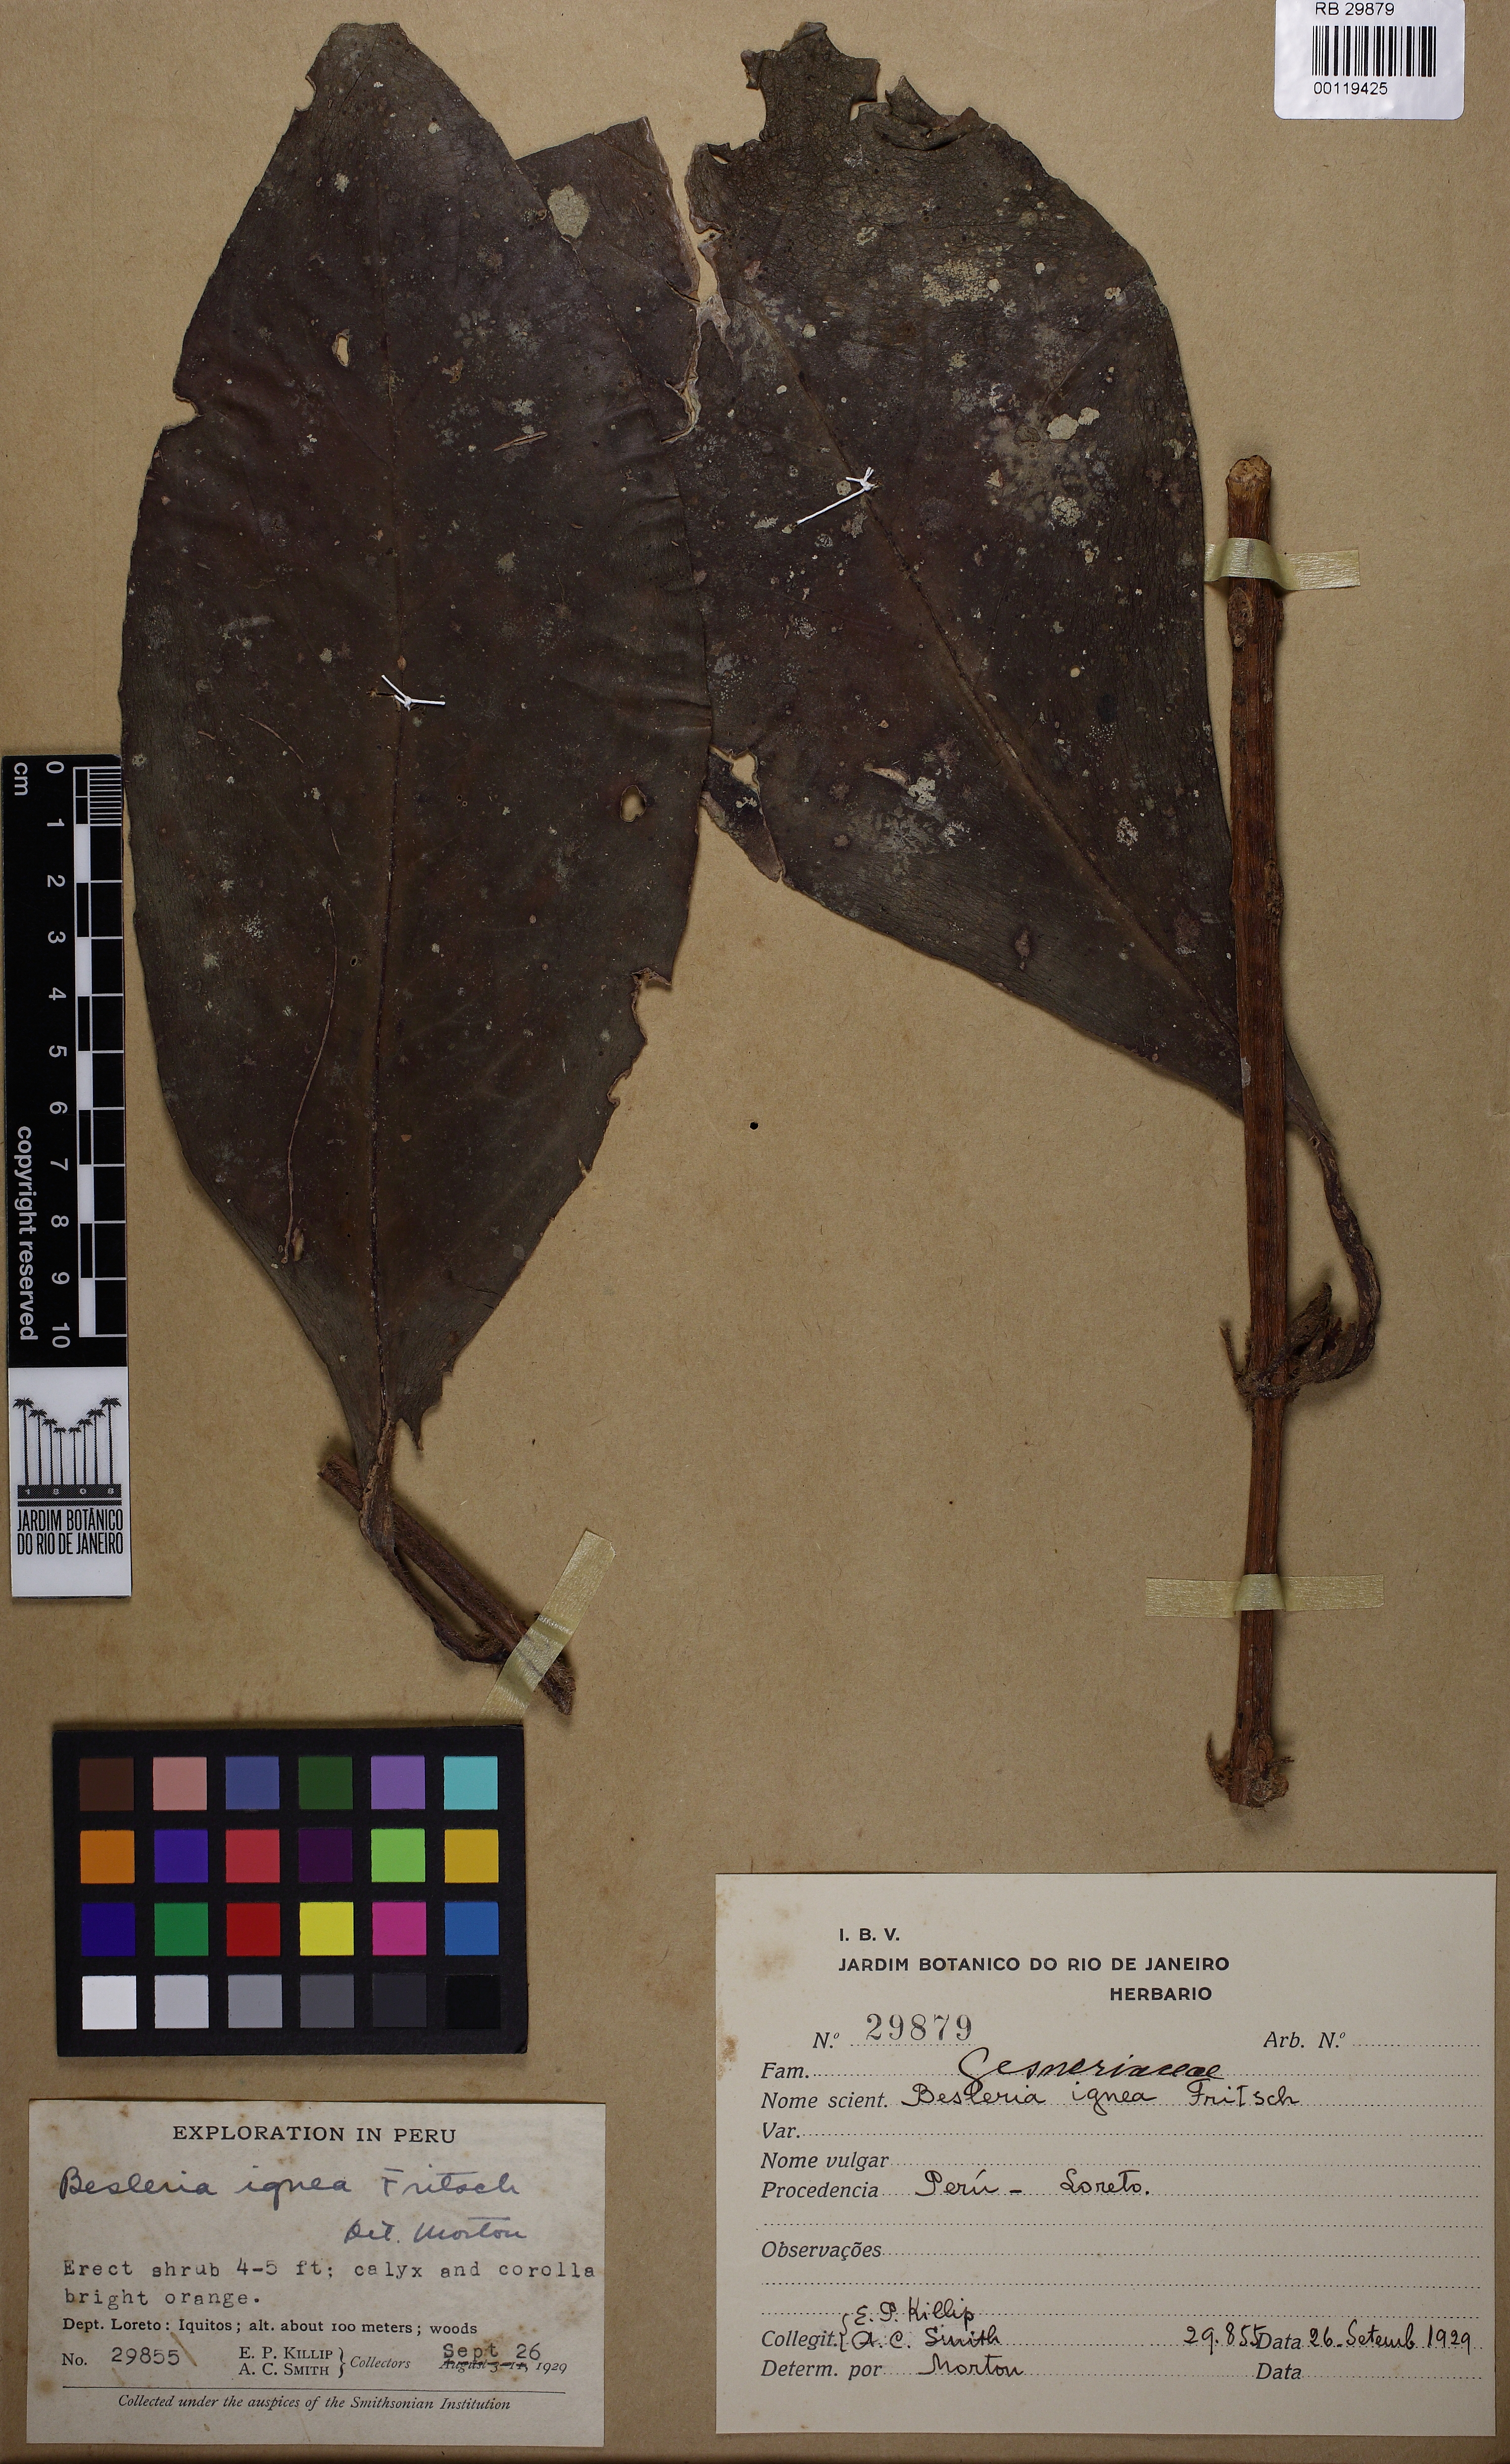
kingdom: Plantae
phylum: Tracheophyta
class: Magnoliopsida
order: Lamiales
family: Gesneriaceae
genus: Besleria
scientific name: Besleria aggregata
